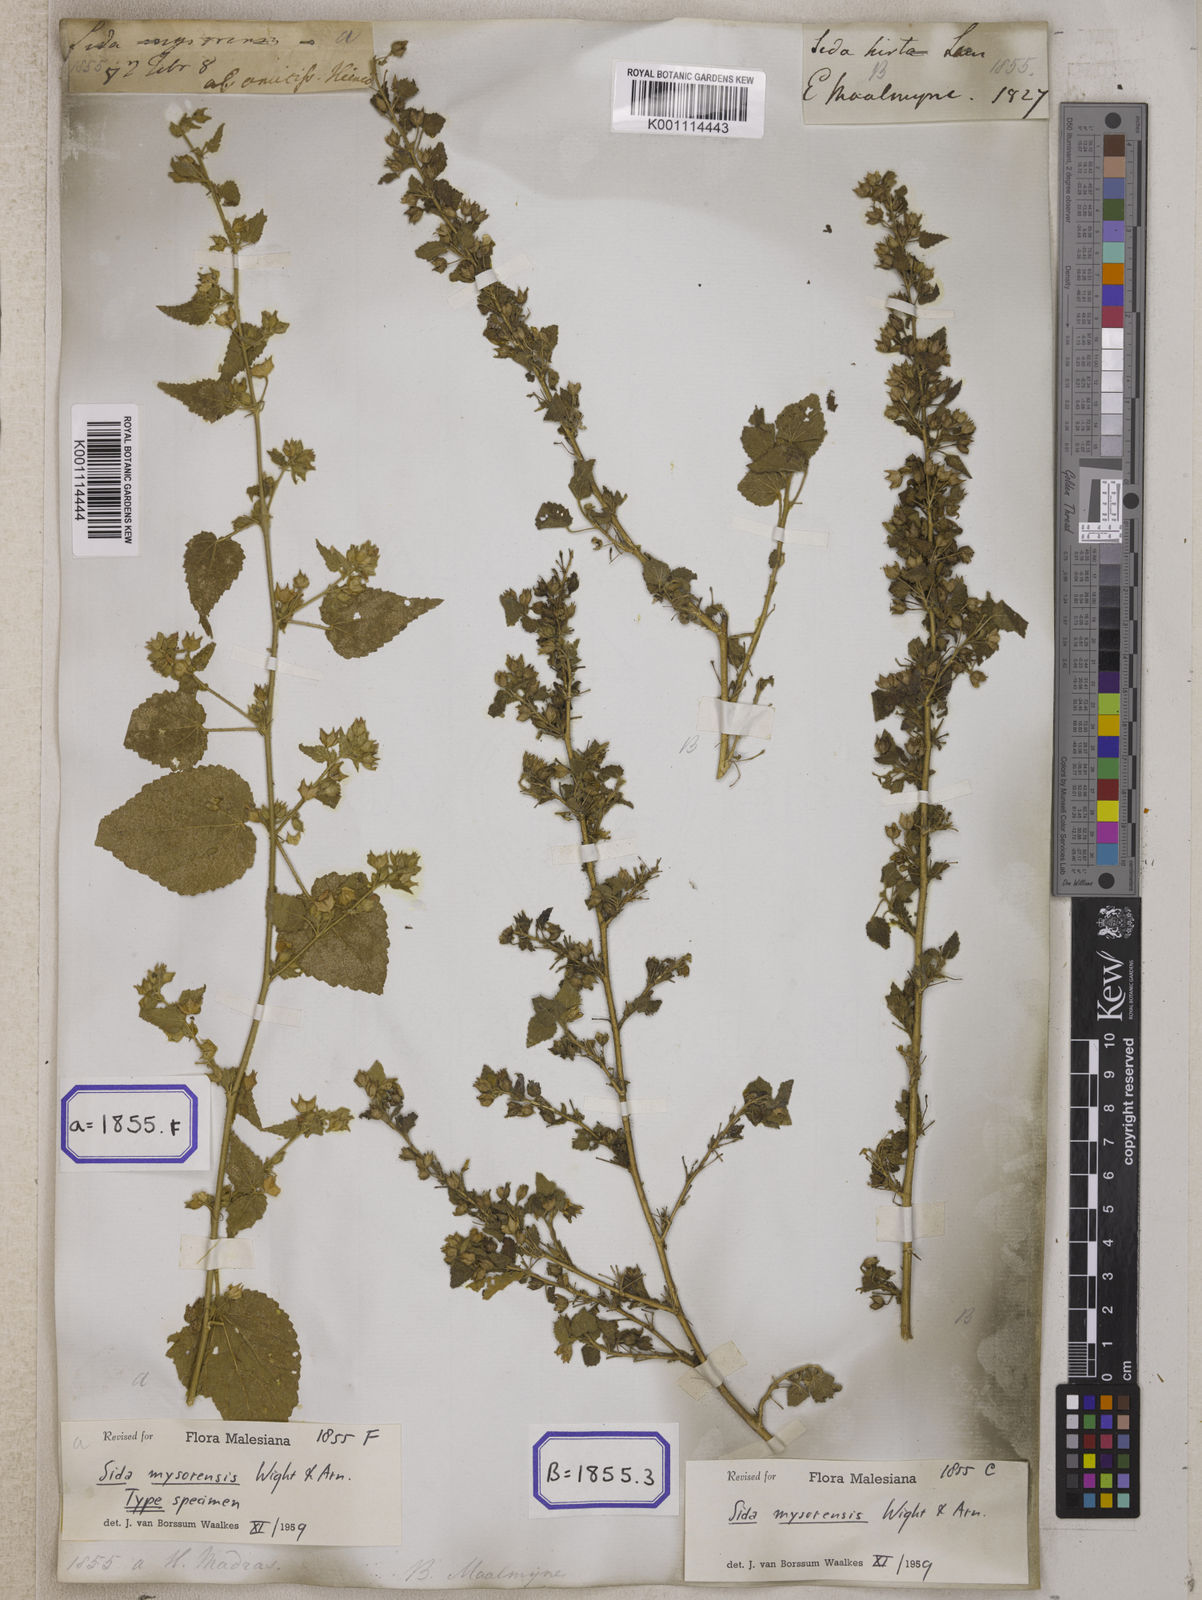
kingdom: Plantae
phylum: Tracheophyta
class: Magnoliopsida
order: Malvales
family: Malvaceae
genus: Abutilon
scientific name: Abutilon hirtum
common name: Florida keys indian mallow
